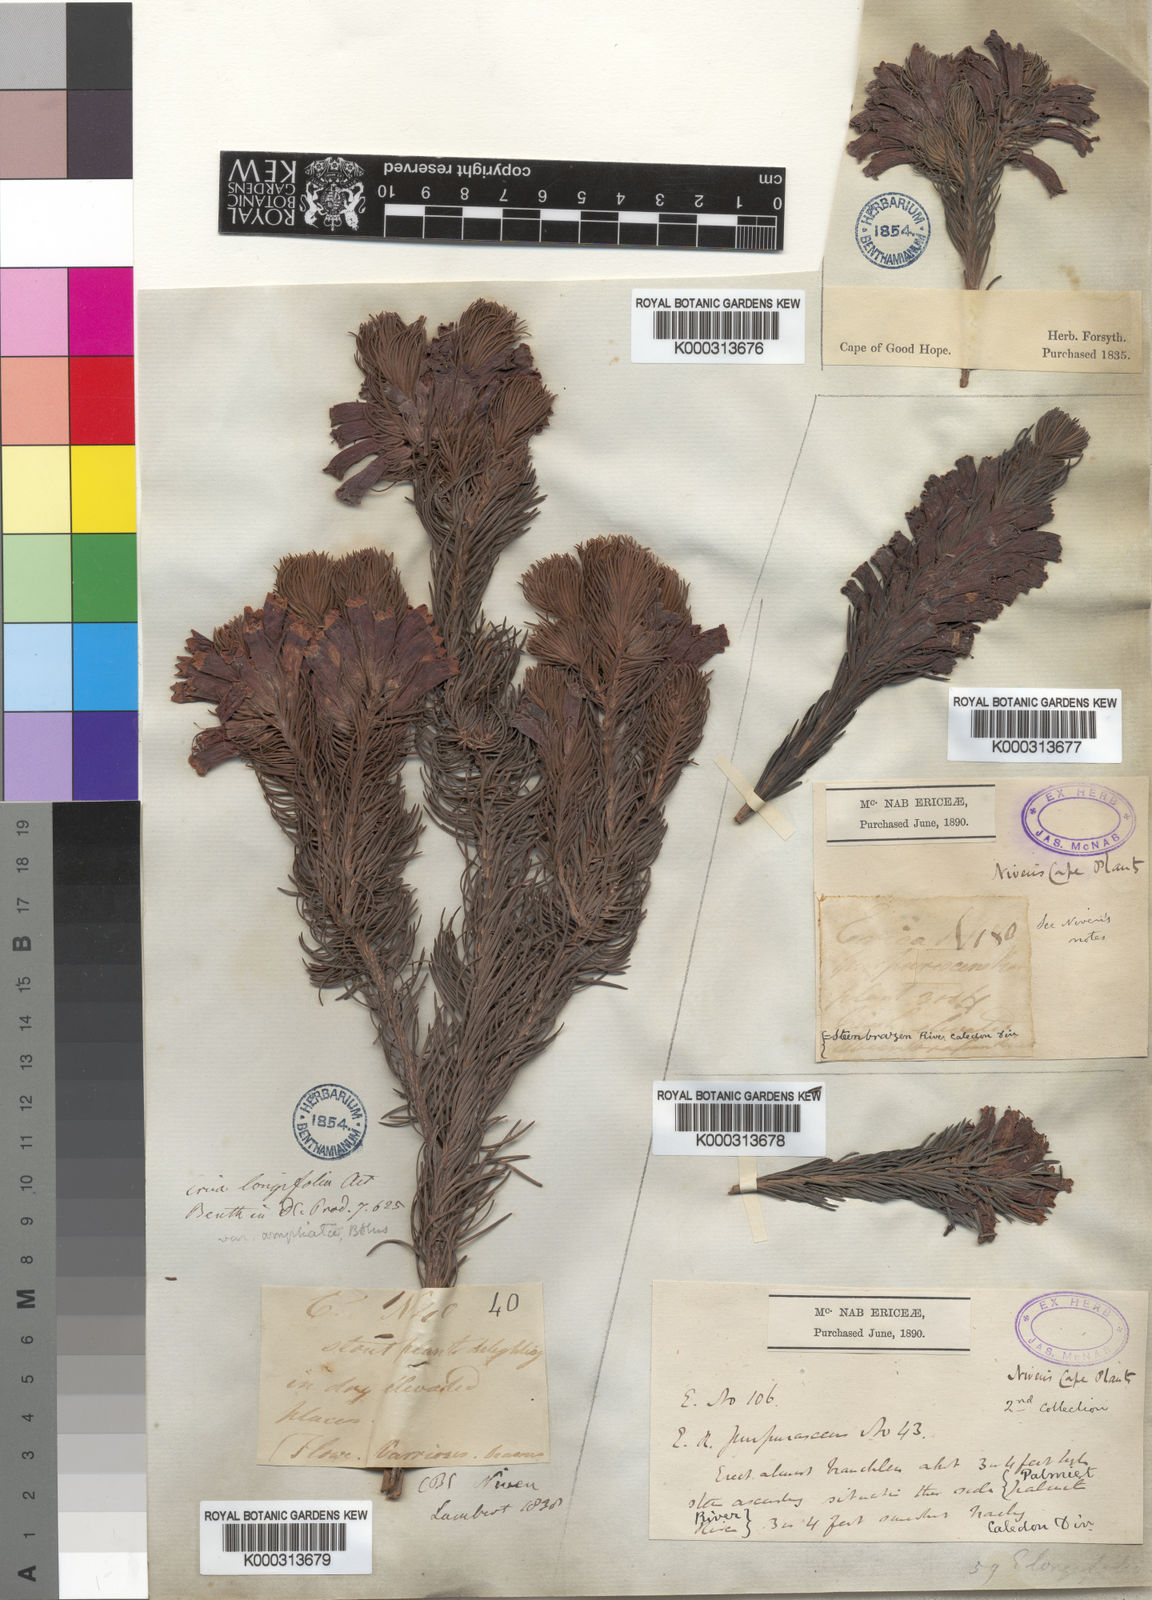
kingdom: Plantae
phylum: Tracheophyta
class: Magnoliopsida
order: Ericales
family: Ericaceae
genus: Erica
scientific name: Erica viscaria
